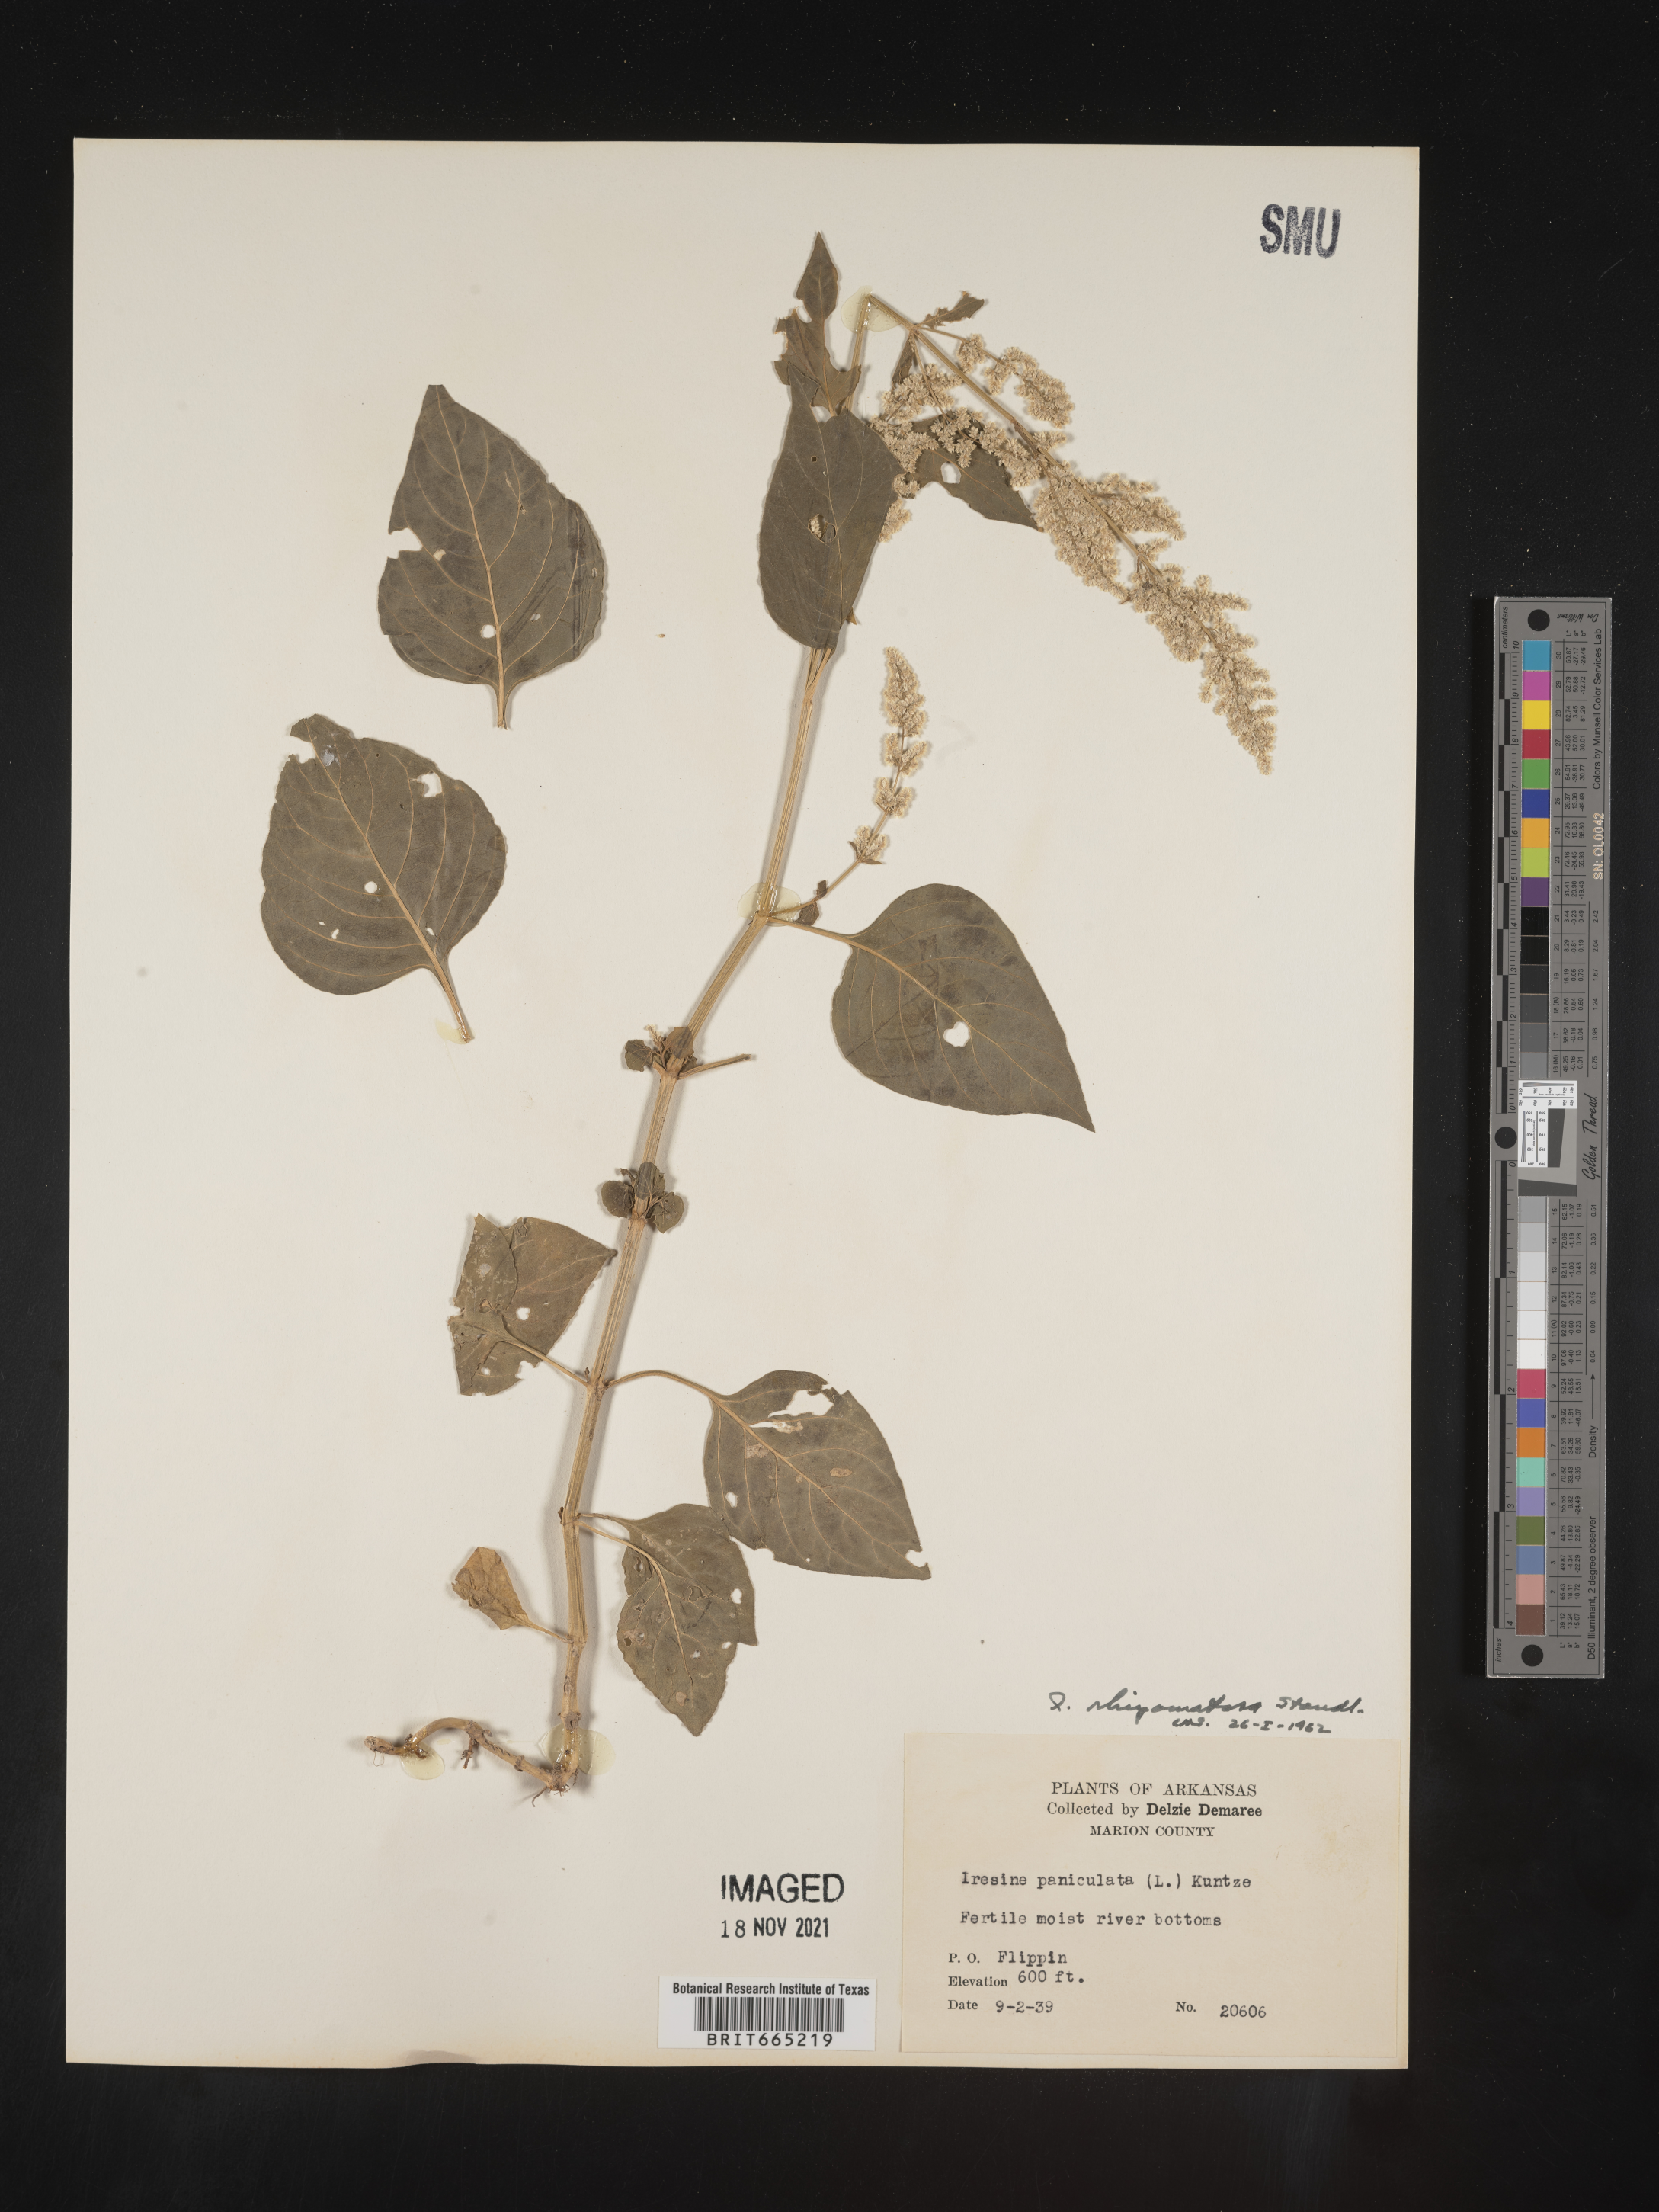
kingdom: Plantae
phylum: Tracheophyta
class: Magnoliopsida
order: Caryophyllales
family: Amaranthaceae
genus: Iresine
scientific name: Iresine rhizomatosa
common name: Juda's-bush
